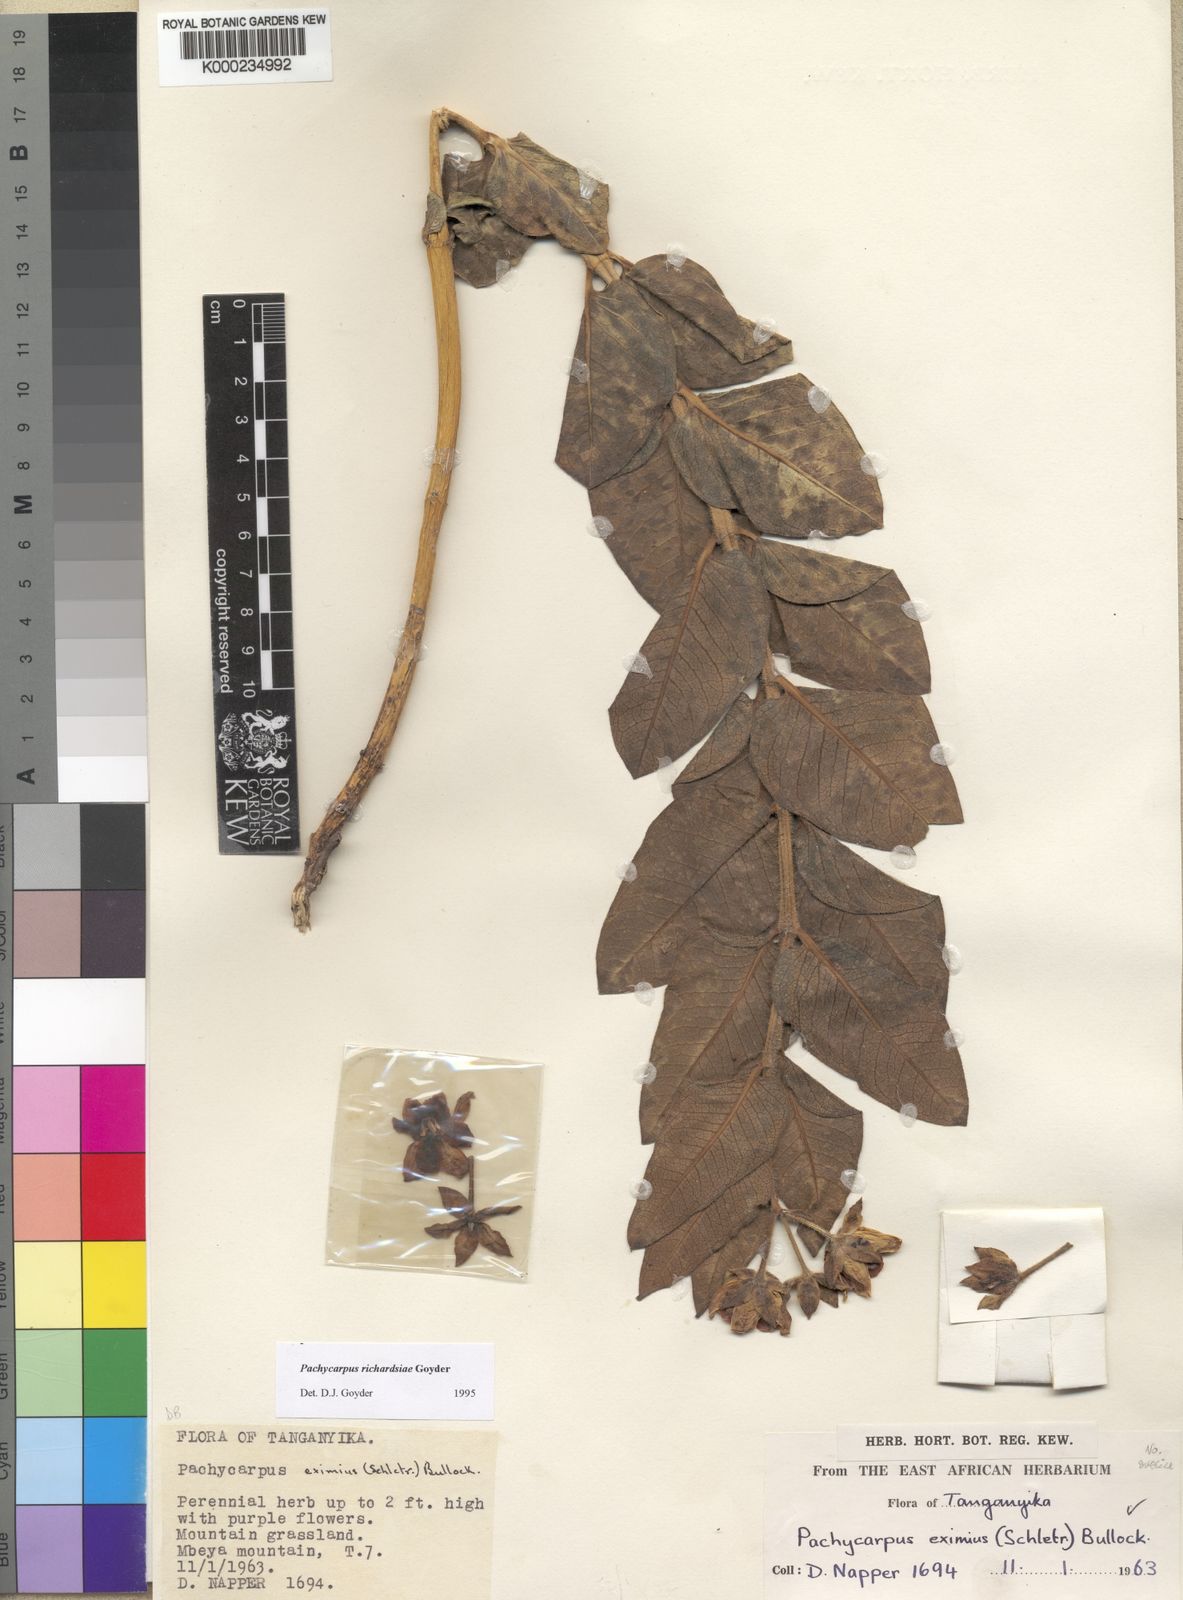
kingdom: Plantae
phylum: Tracheophyta
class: Magnoliopsida
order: Gentianales
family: Apocynaceae
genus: Pachycarpus
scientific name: Pachycarpus richardsiae
